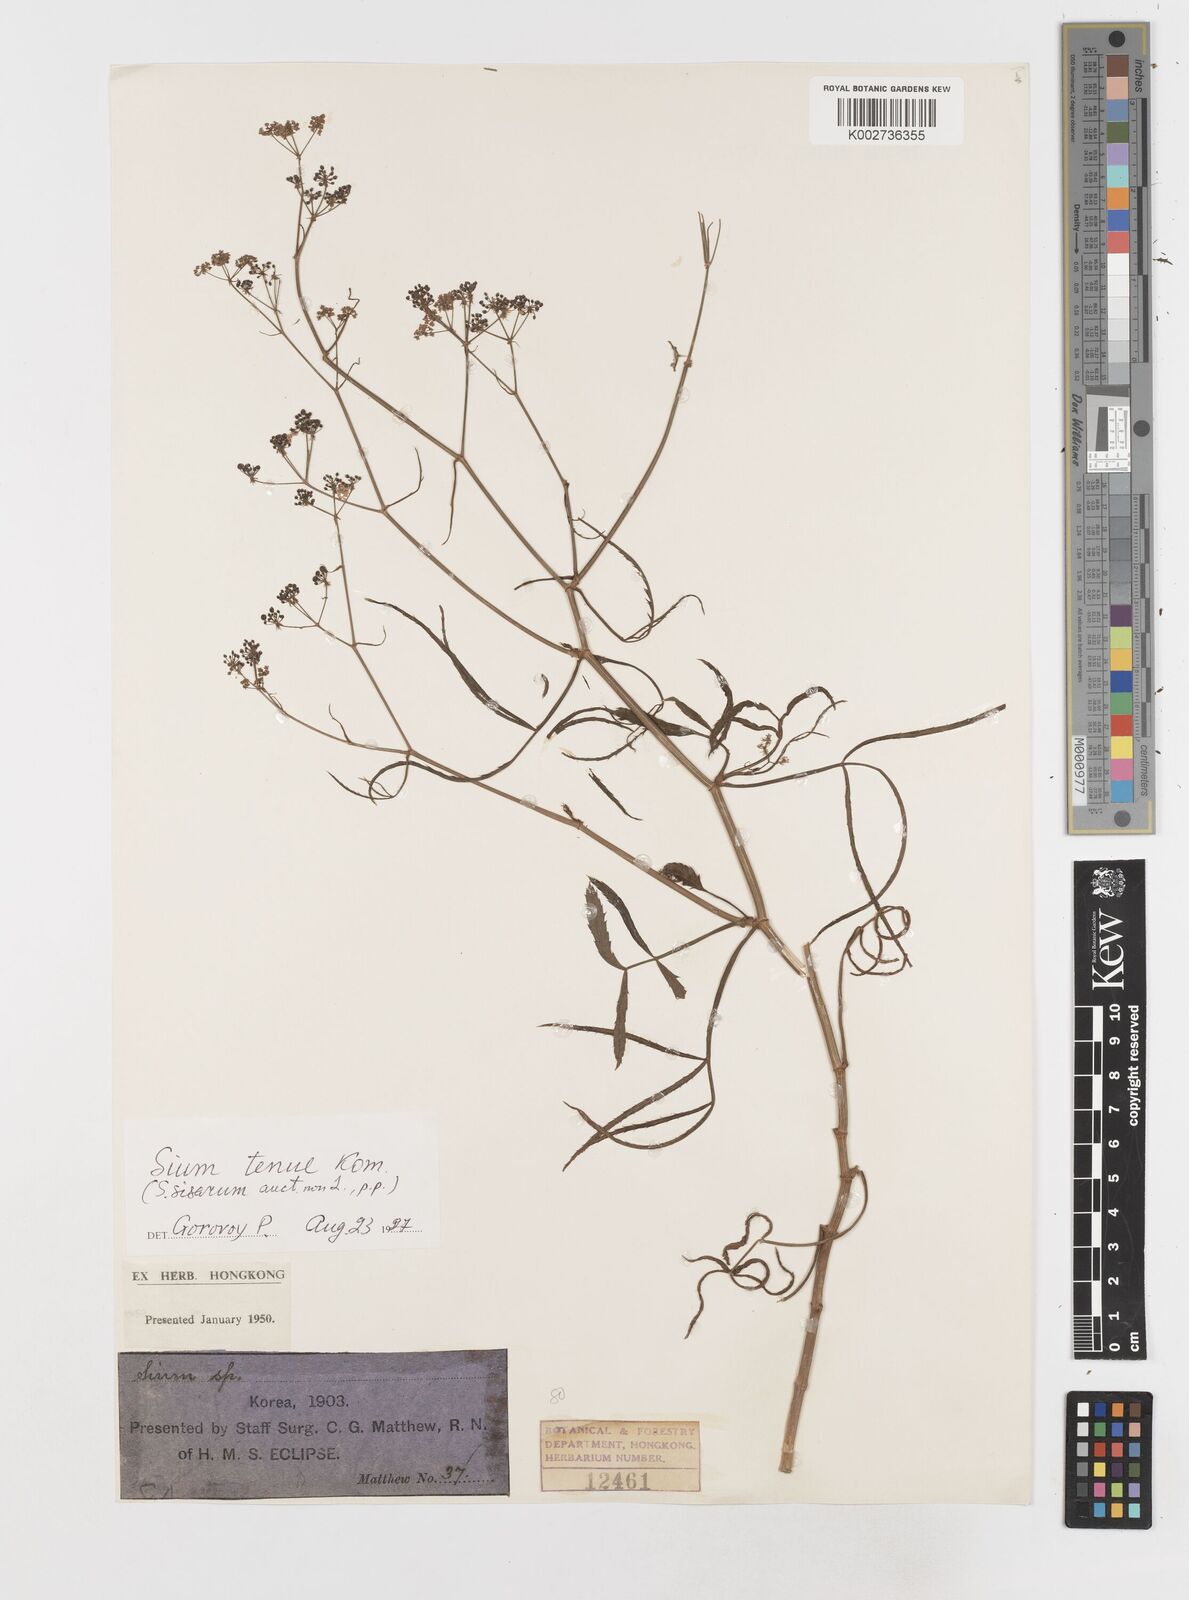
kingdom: Plantae
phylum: Tracheophyta
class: Magnoliopsida
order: Apiales
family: Apiaceae
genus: Sium
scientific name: Sium sisarum
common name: Skirret
